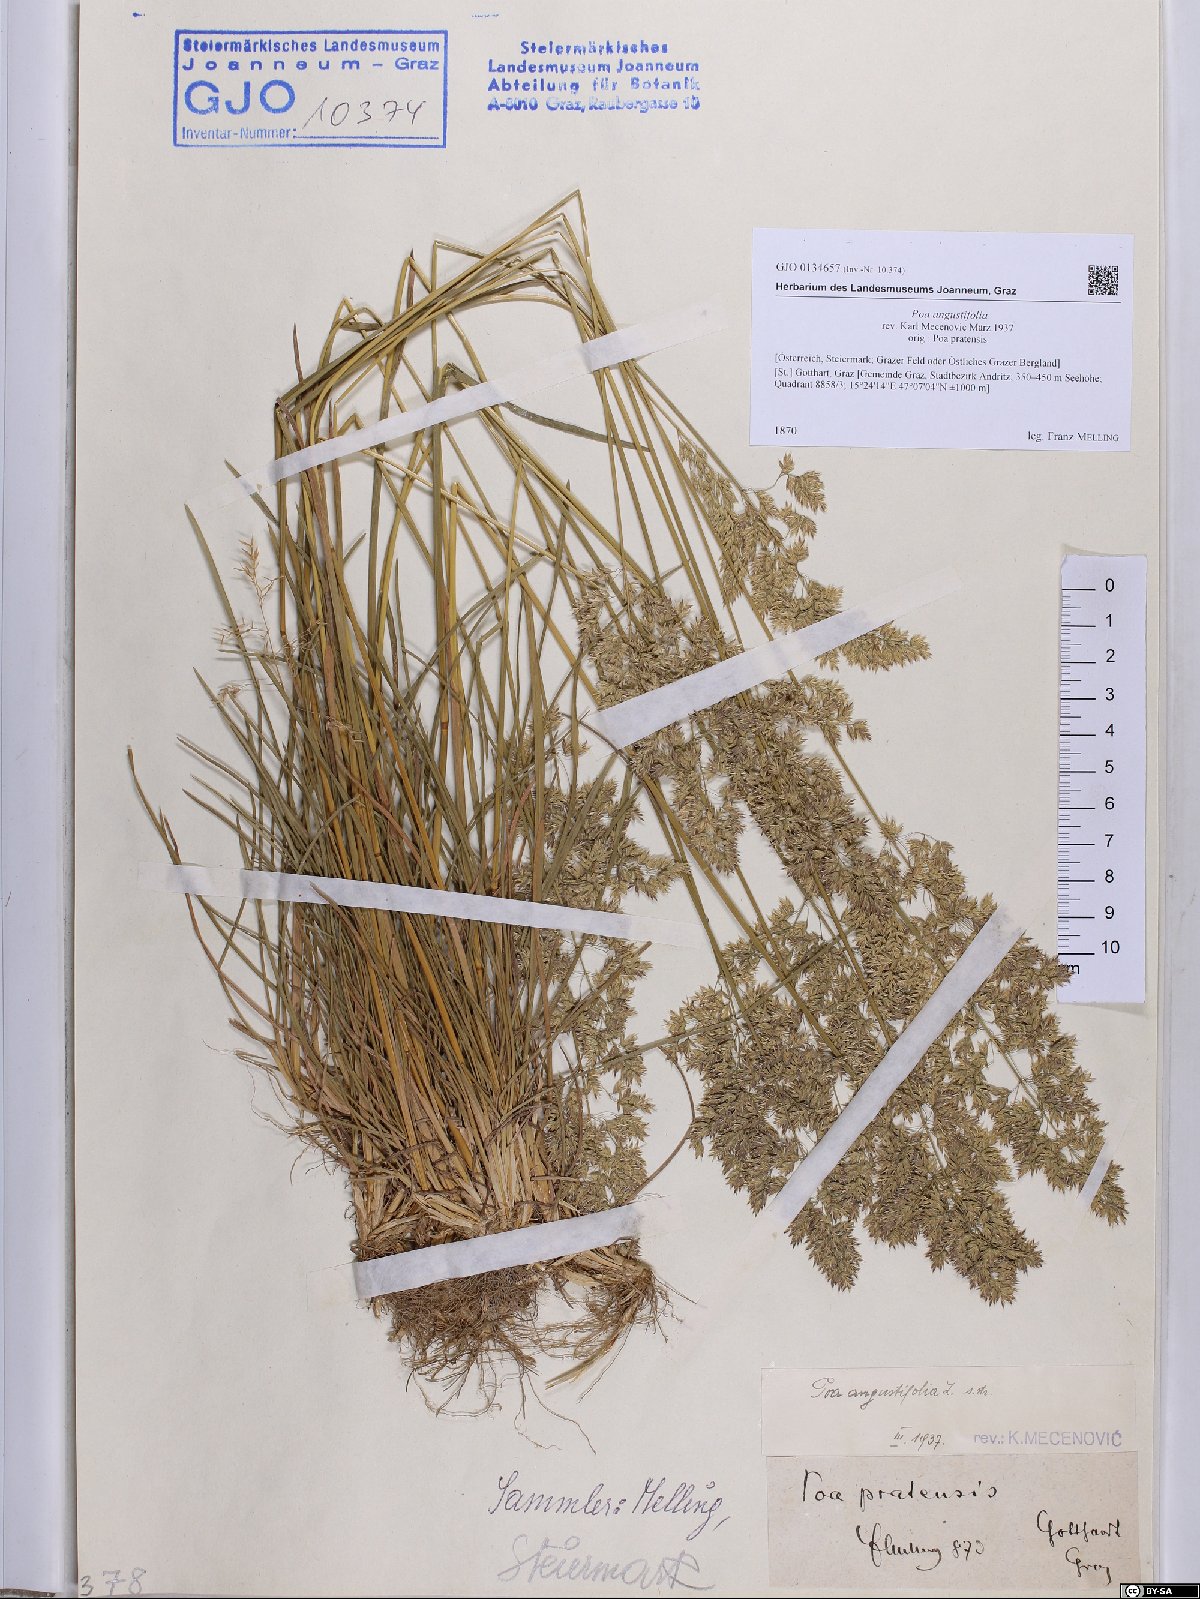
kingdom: Plantae
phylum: Tracheophyta
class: Liliopsida
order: Poales
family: Poaceae
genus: Poa
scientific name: Poa angustifolia
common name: Narrow-leaved meadow-grass
